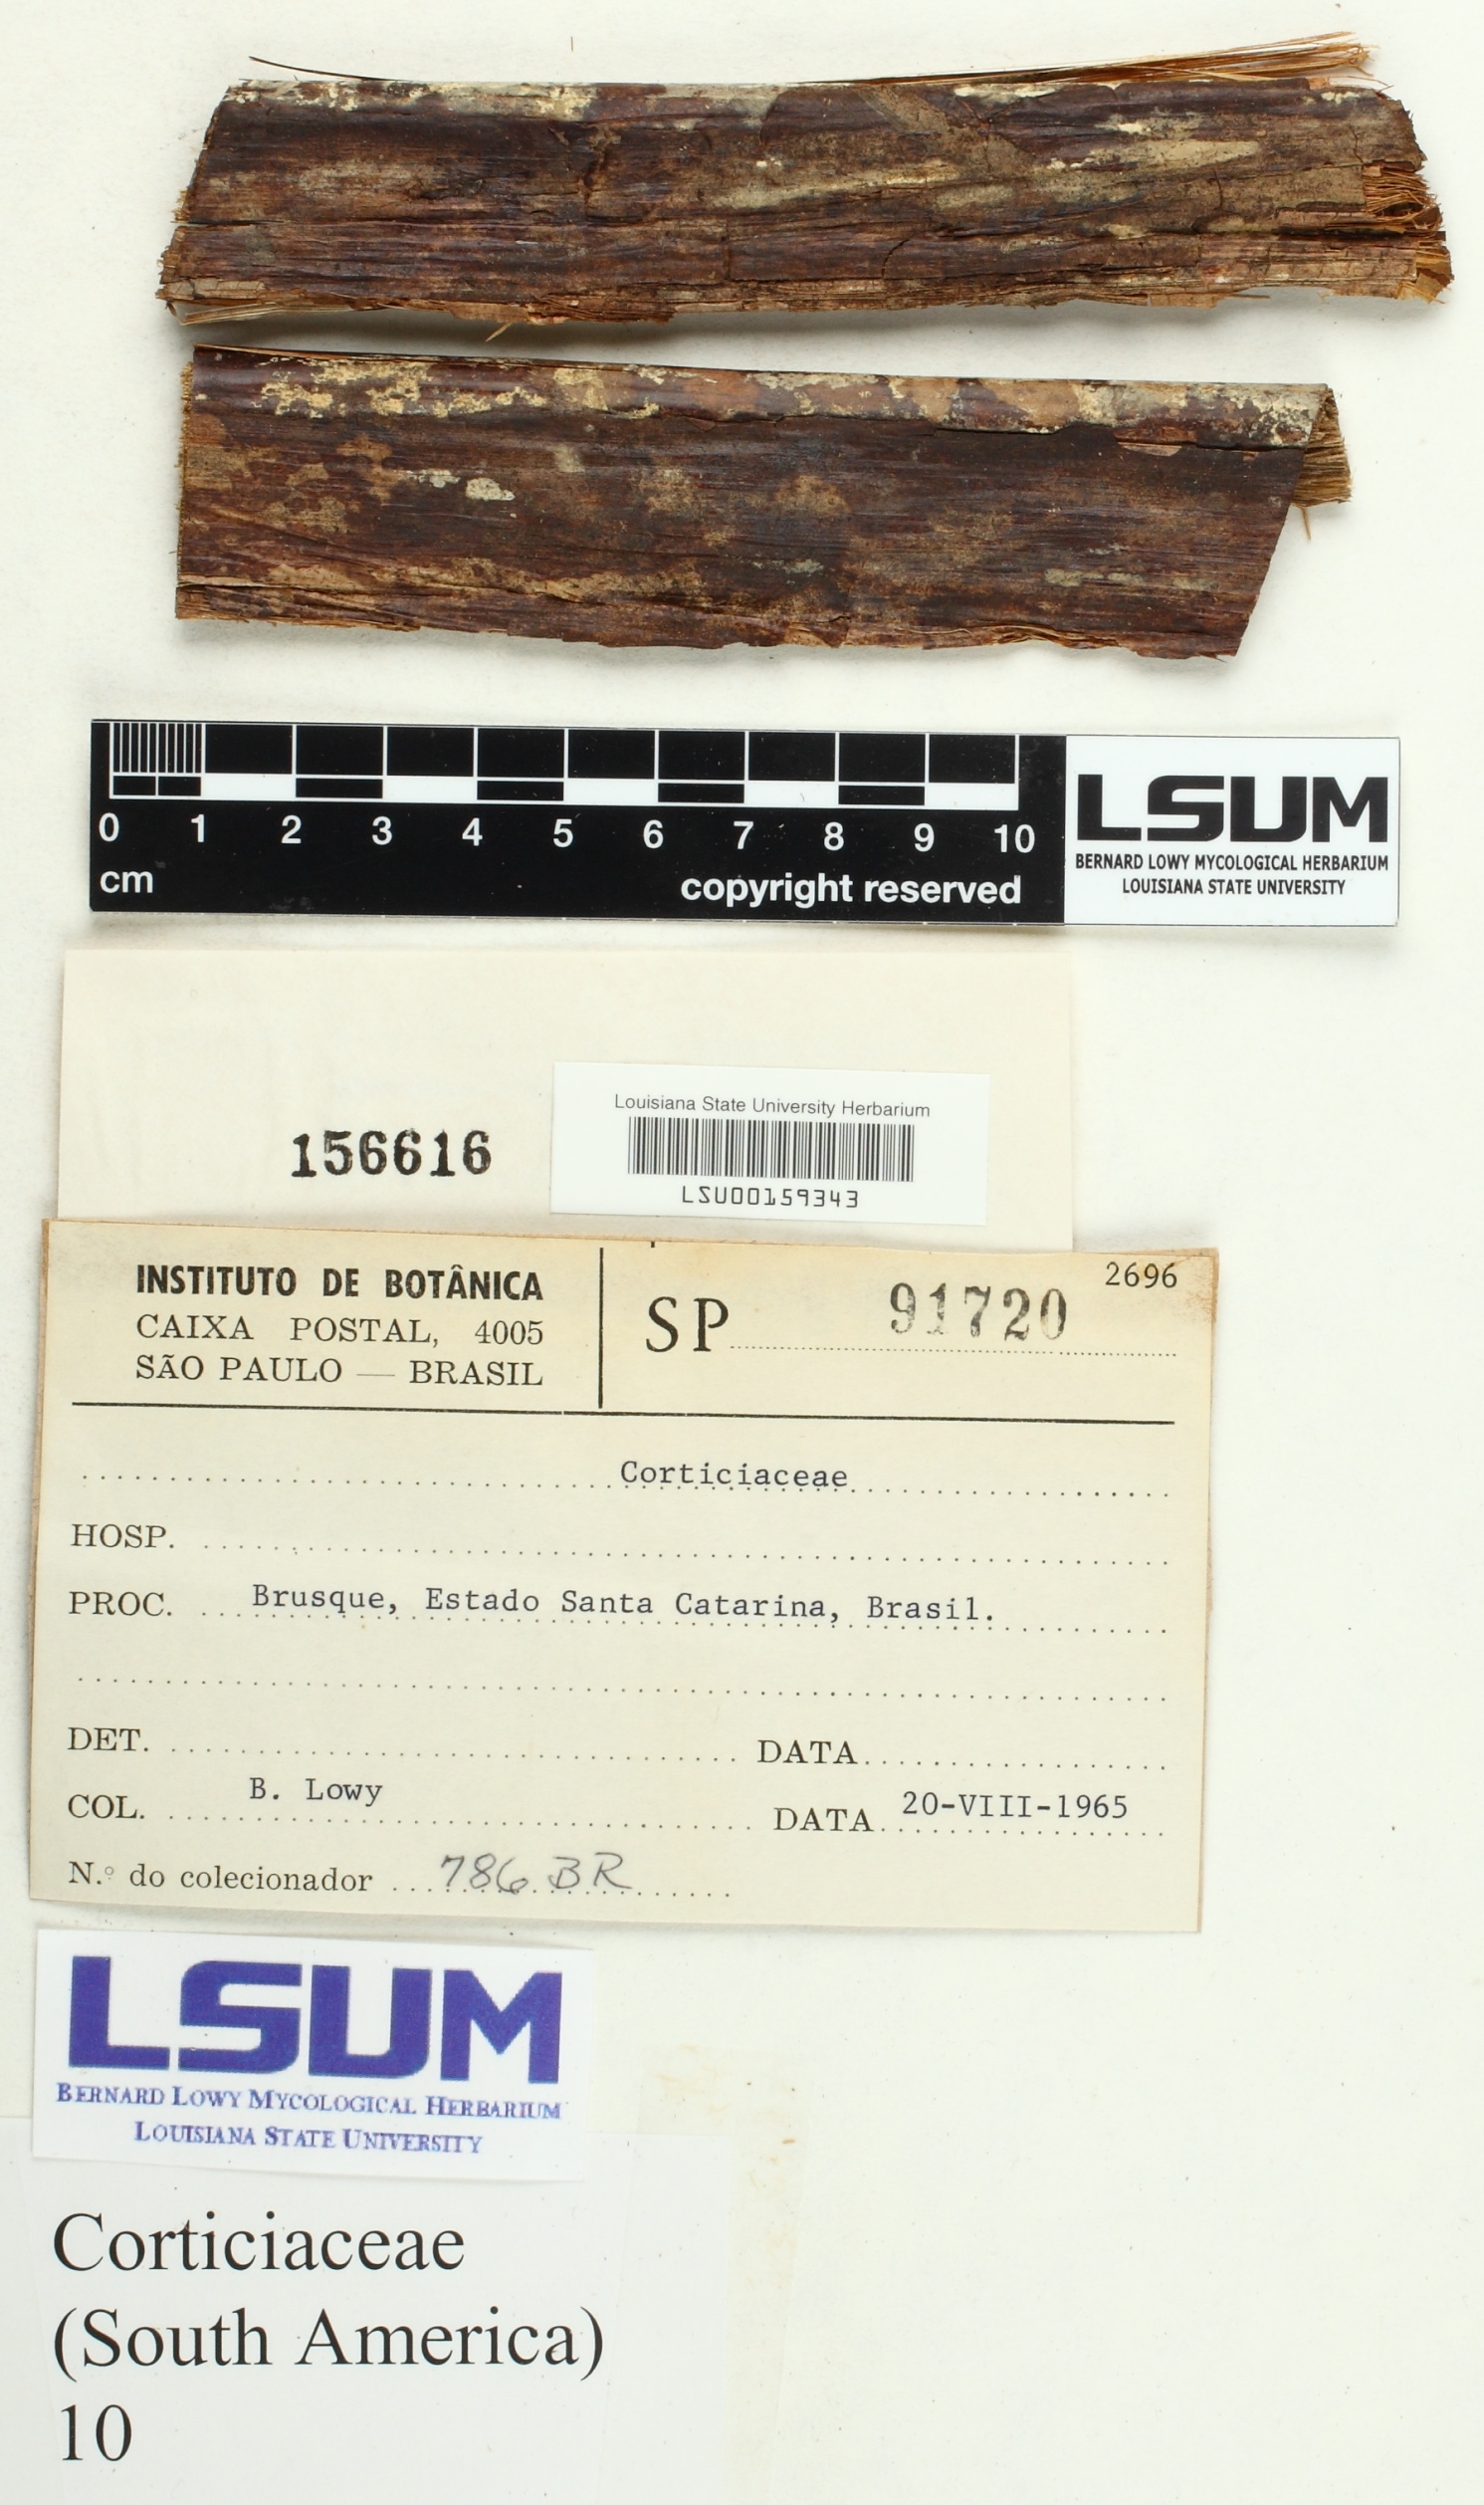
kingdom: Fungi
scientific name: Fungi
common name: Fungi
